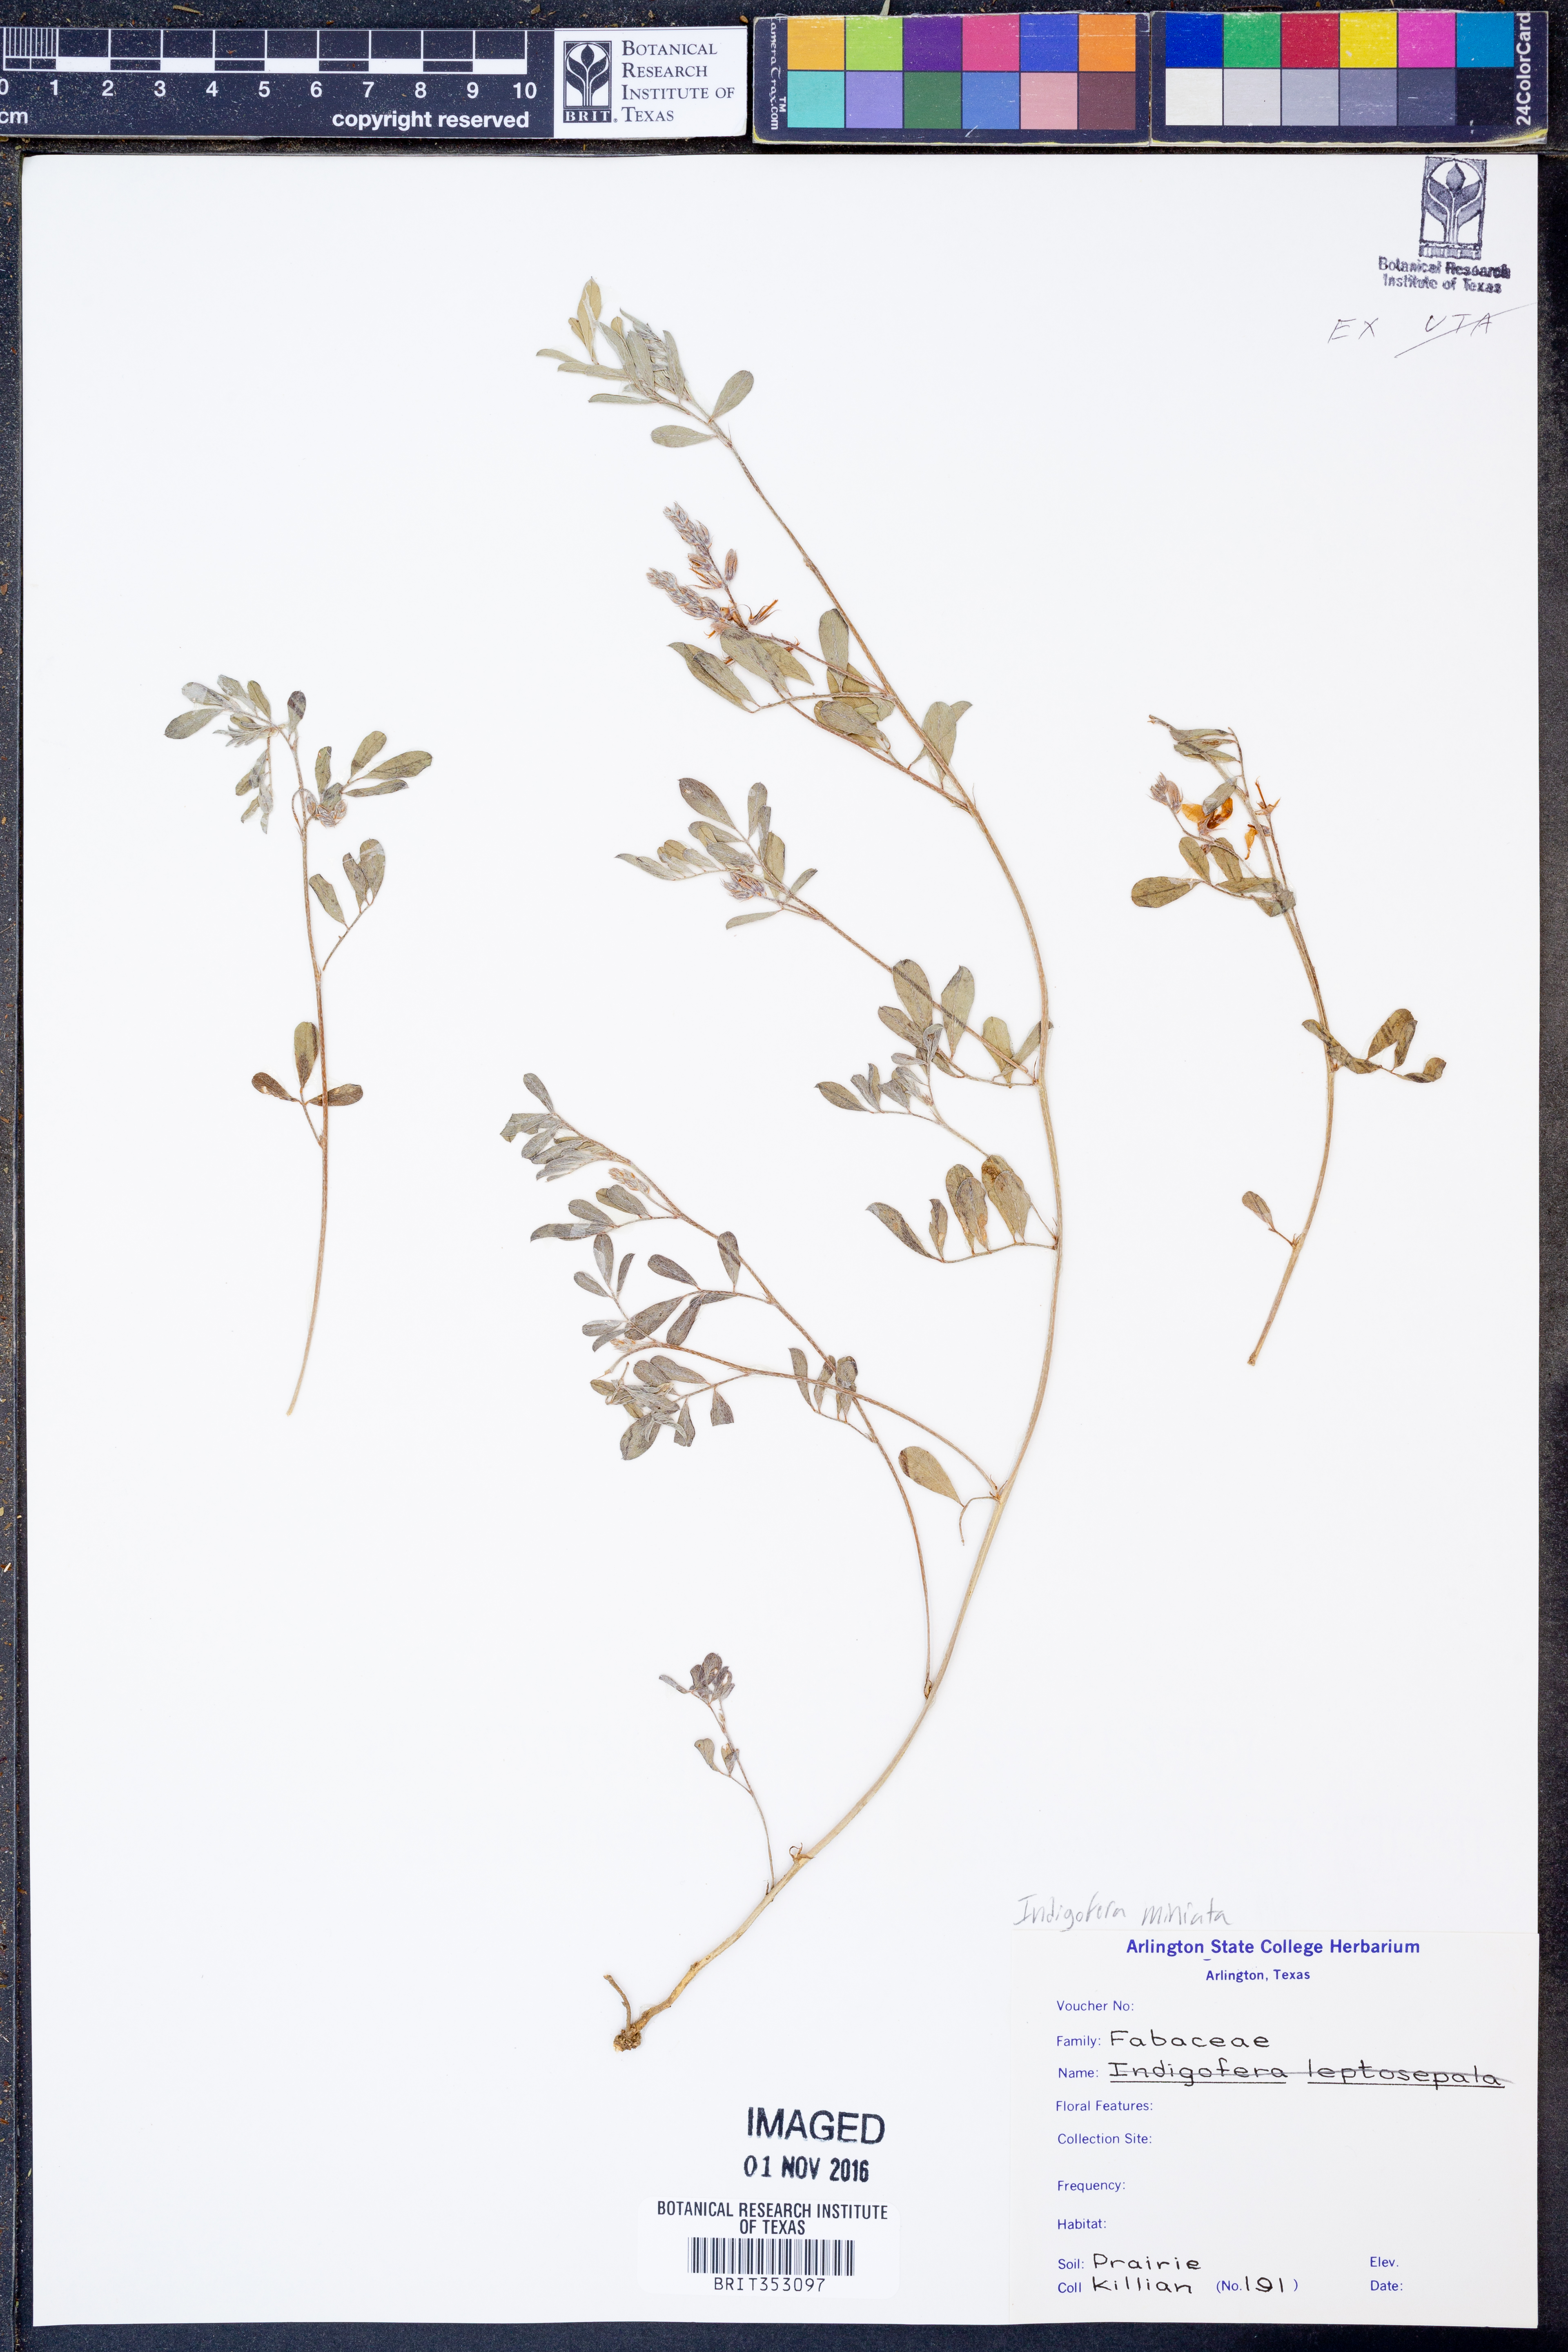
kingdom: Plantae
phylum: Tracheophyta
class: Magnoliopsida
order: Fabales
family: Fabaceae
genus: Indigofera
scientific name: Indigofera miniata
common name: Coast indigo
